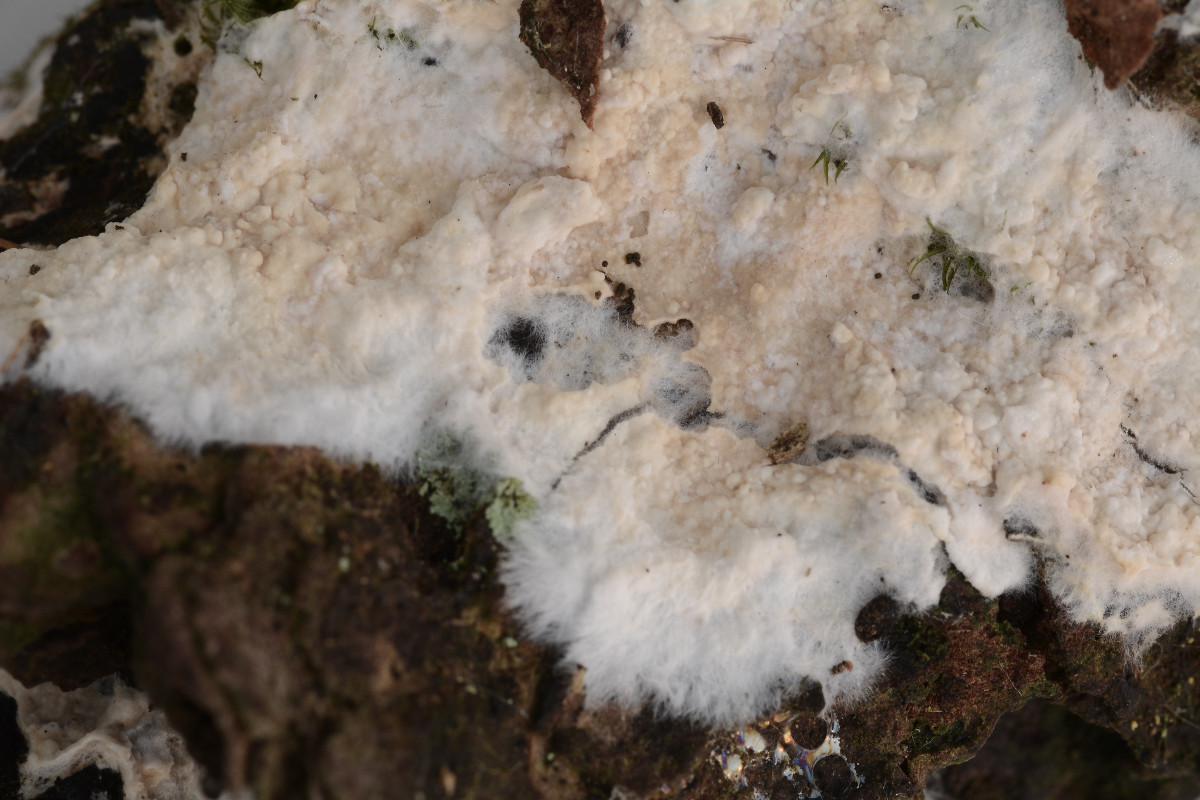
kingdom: Fungi
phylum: Basidiomycota
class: Agaricomycetes
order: Polyporales
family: Irpicaceae
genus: Crystallicutis
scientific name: Crystallicutis serpens
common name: gråviolet barkhinde
